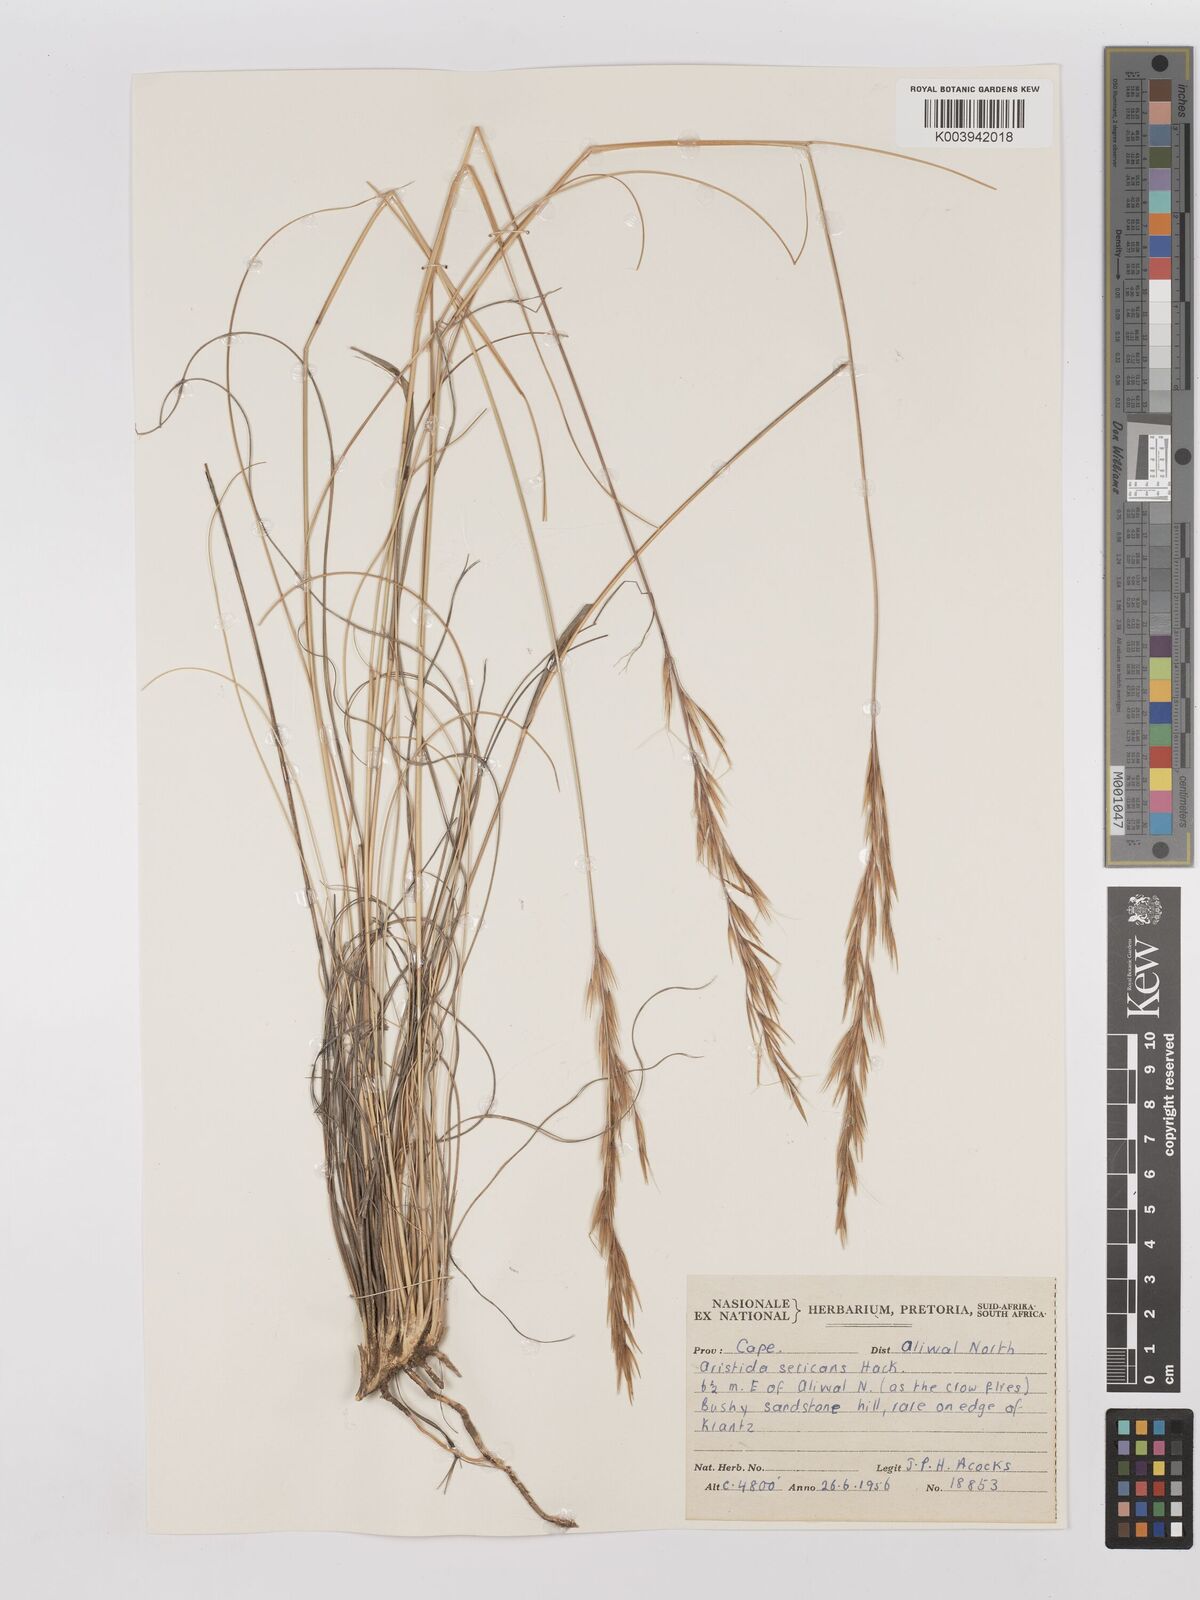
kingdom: Plantae
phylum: Tracheophyta
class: Liliopsida
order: Poales
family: Poaceae
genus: Stipagrostis
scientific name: Stipagrostis zeyheri
